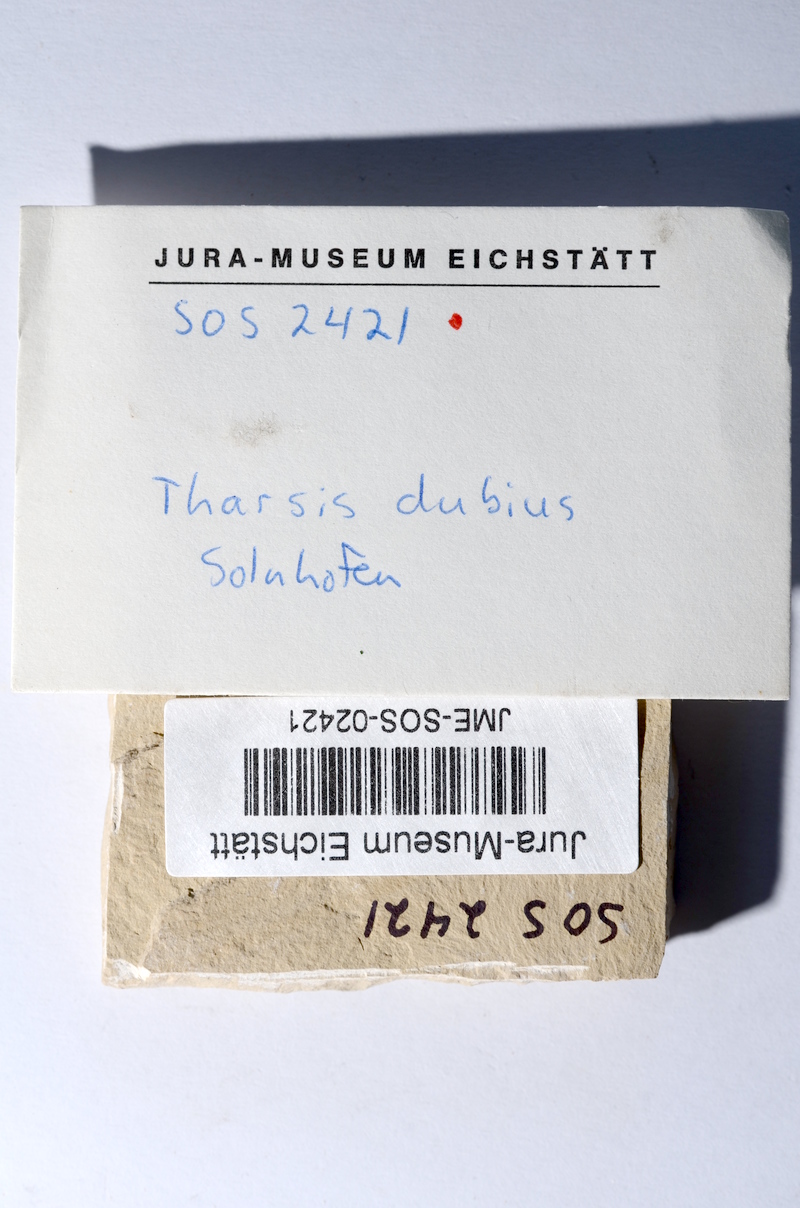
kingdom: Animalia
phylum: Chordata
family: Ascalaboidae
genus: Tharsis
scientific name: Tharsis dubius
